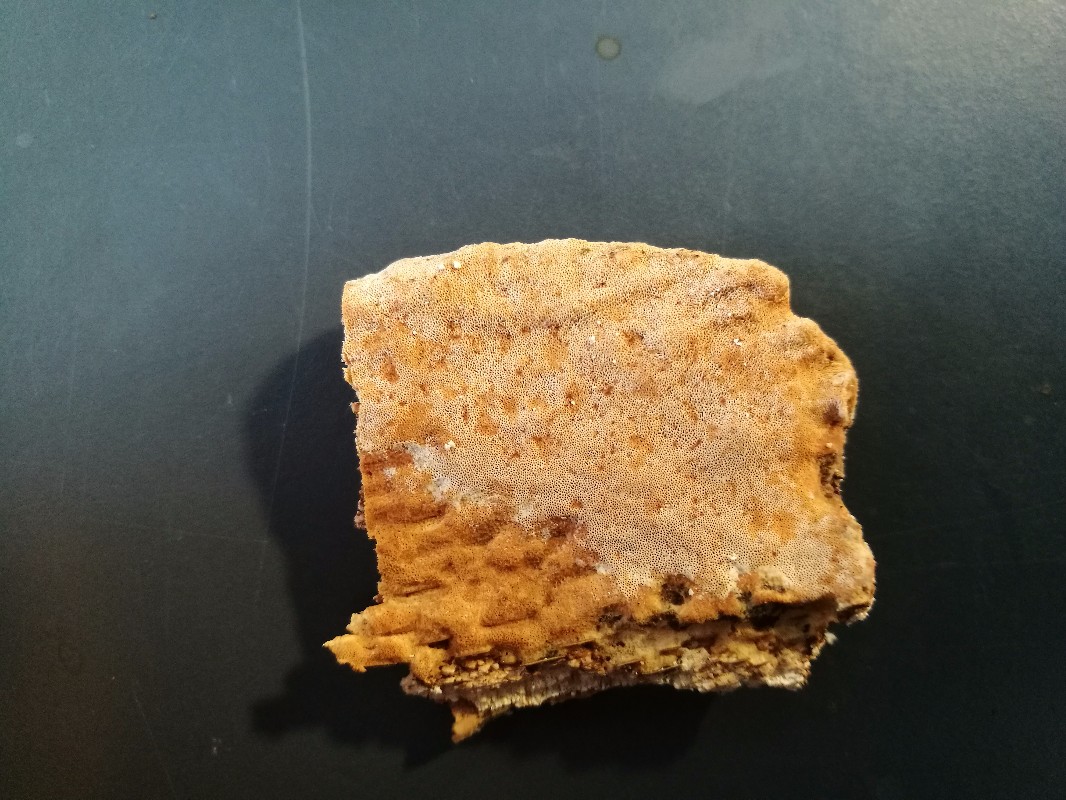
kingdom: Fungi
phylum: Basidiomycota
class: Agaricomycetes
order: Hymenochaetales
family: Schizoporaceae
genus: Xylodon
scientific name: Xylodon flaviporus
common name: gulporet tandsvamp
